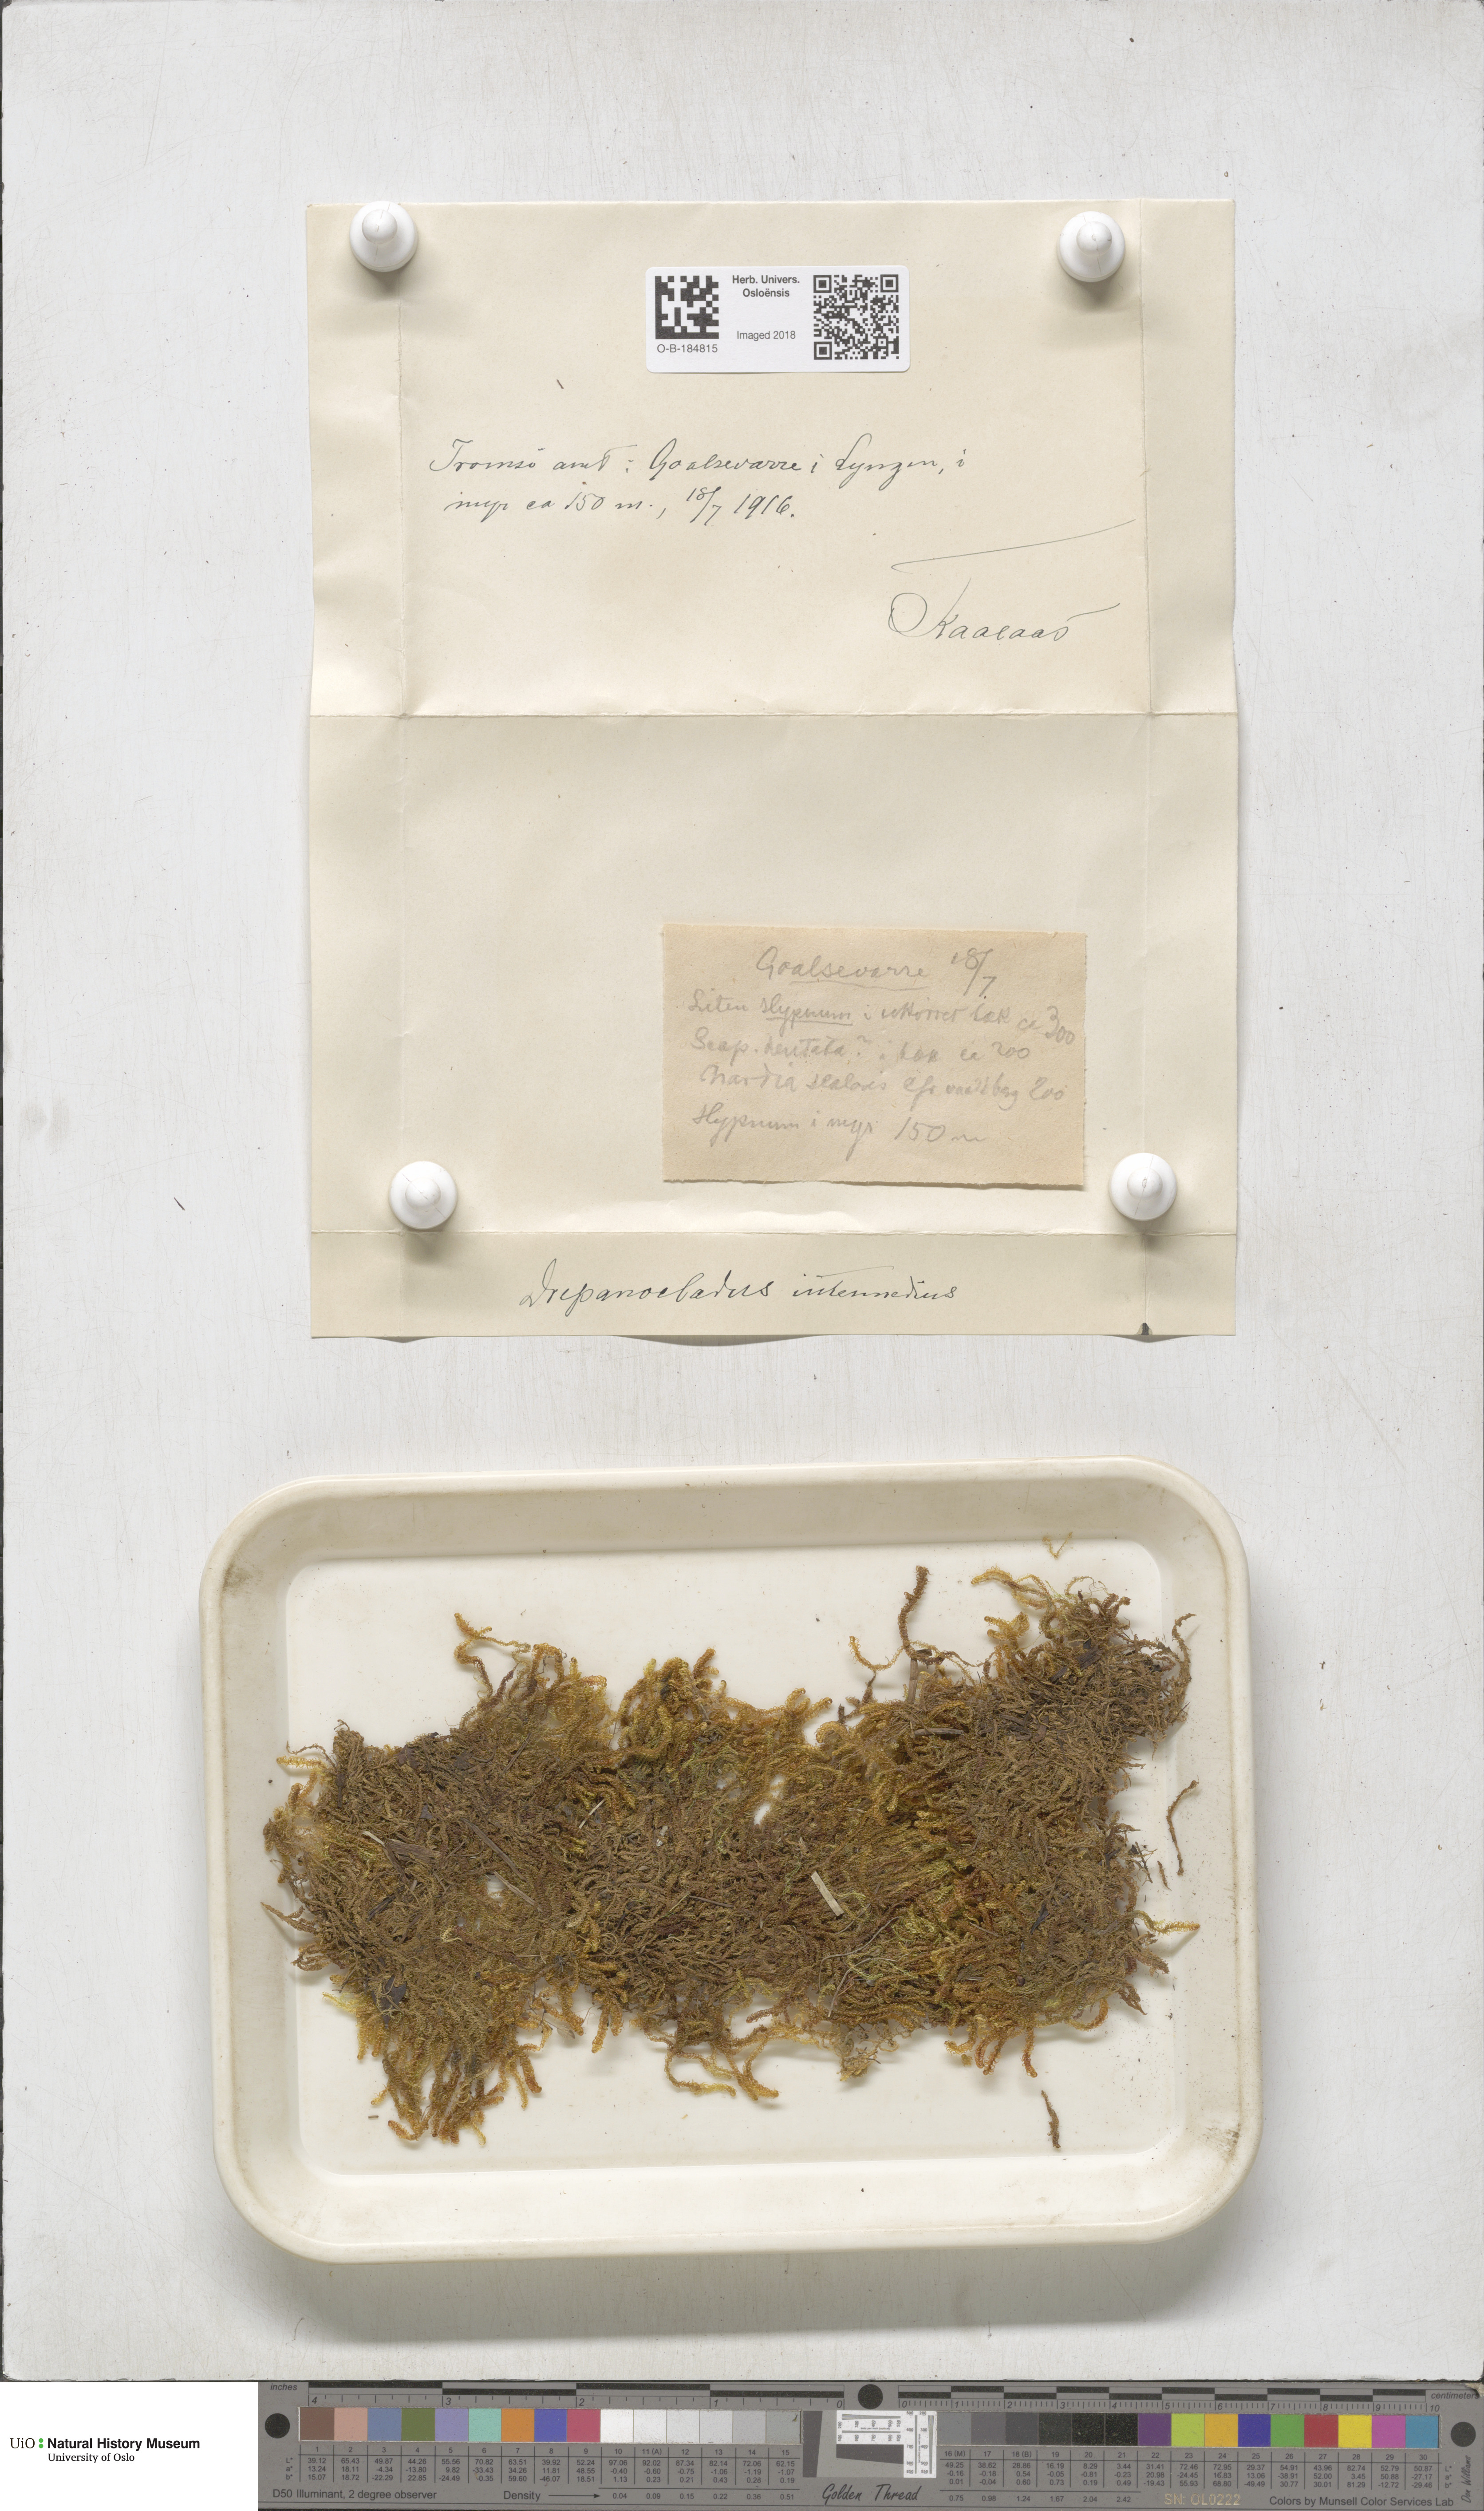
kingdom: Plantae
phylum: Bryophyta
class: Bryopsida
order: Hypnales
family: Scorpidiaceae
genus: Scorpidium
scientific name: Scorpidium cossonii
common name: Cosson's hook moss
